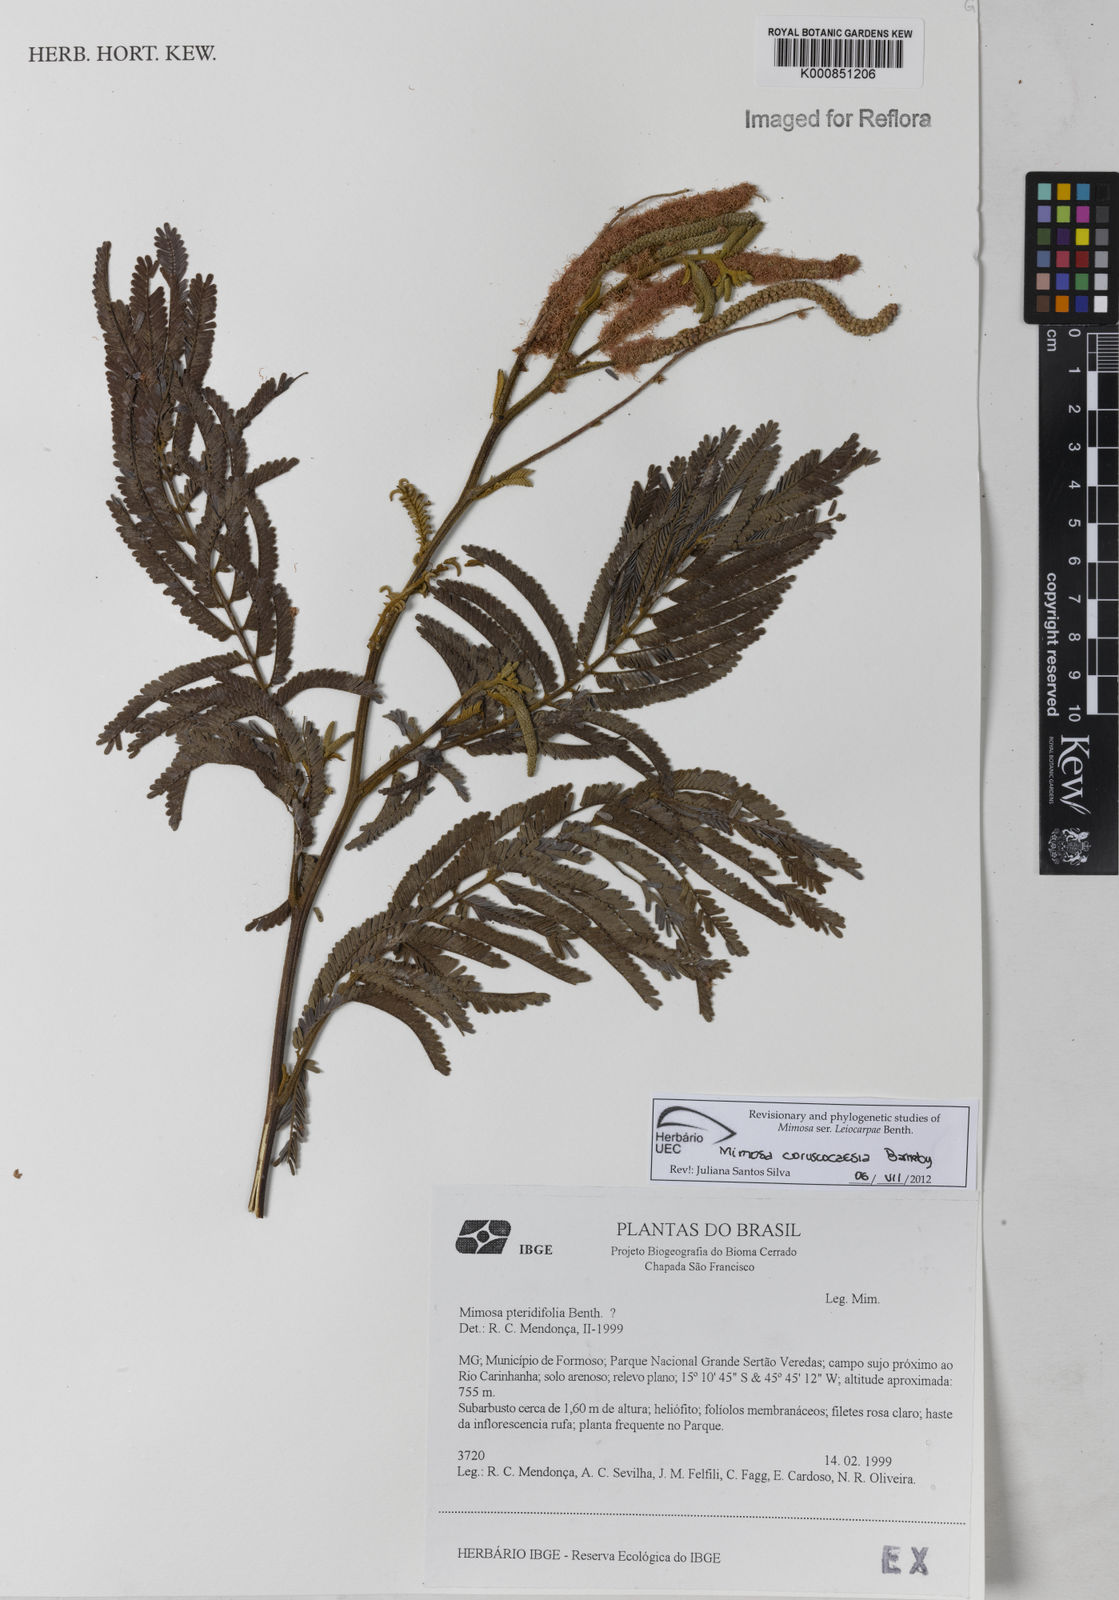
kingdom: Plantae
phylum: Tracheophyta
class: Magnoliopsida
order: Fabales
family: Fabaceae
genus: Mimosa
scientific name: Mimosa coruscocaesia
